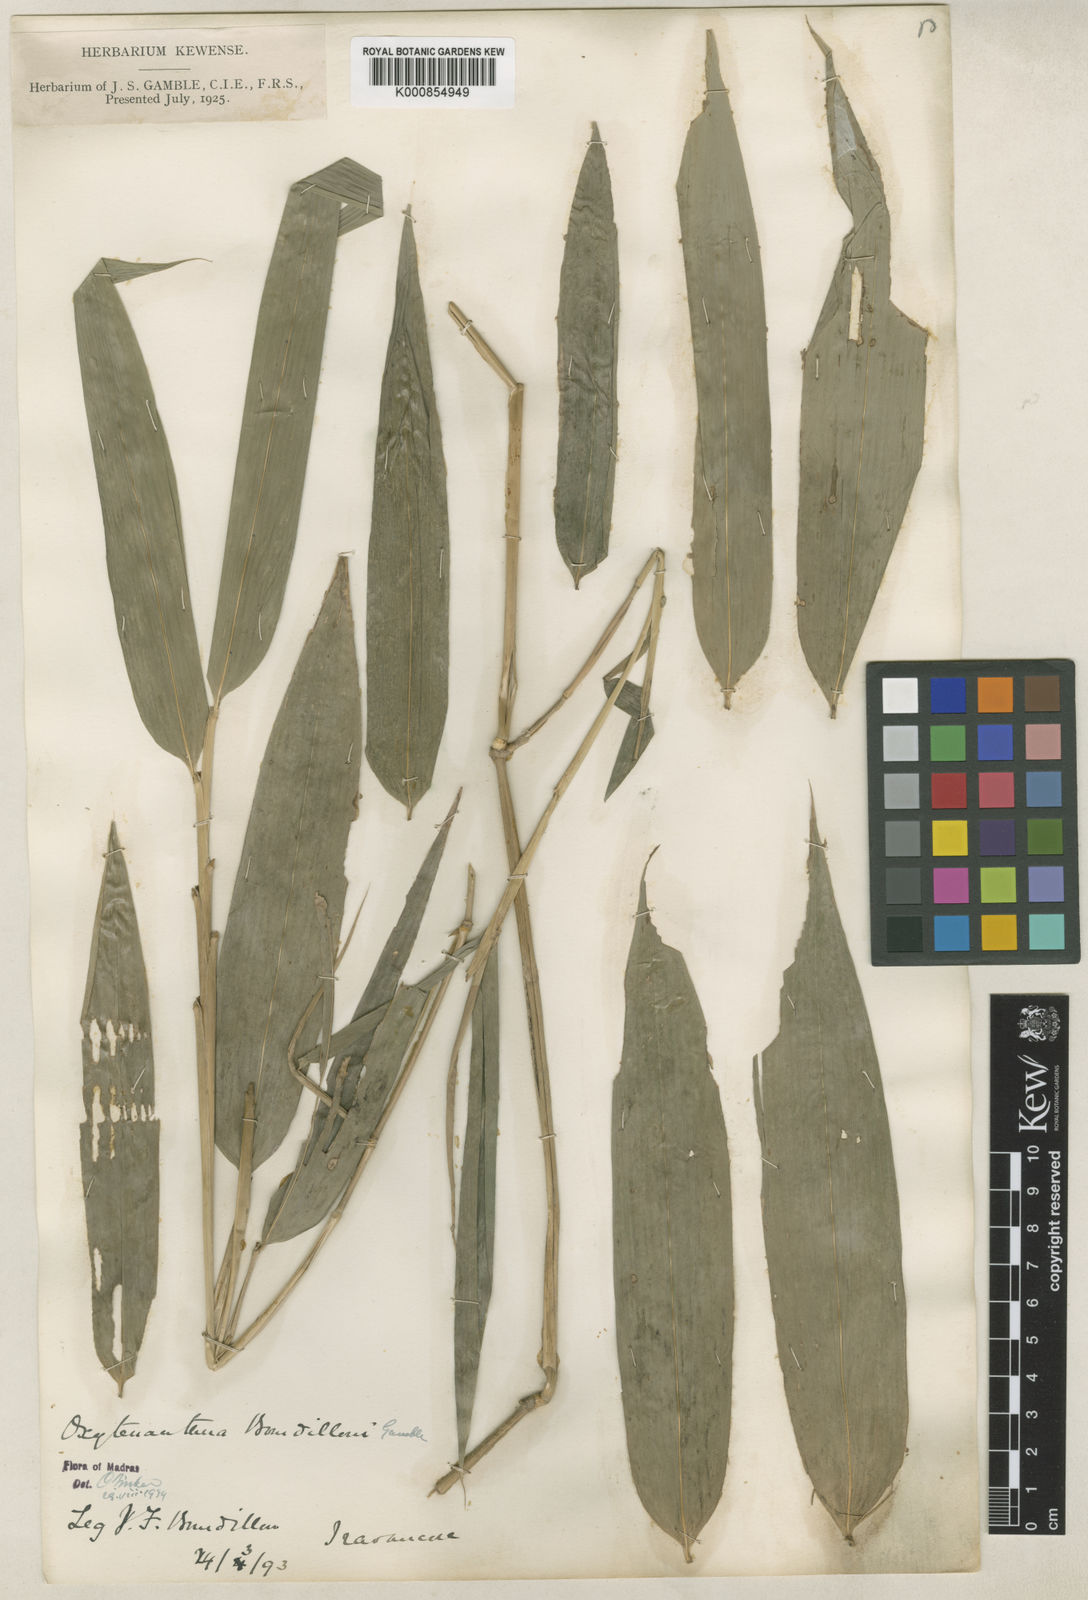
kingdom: Plantae
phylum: Tracheophyta
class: Liliopsida
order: Poales
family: Poaceae
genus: Dendrocalamus
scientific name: Dendrocalamus
